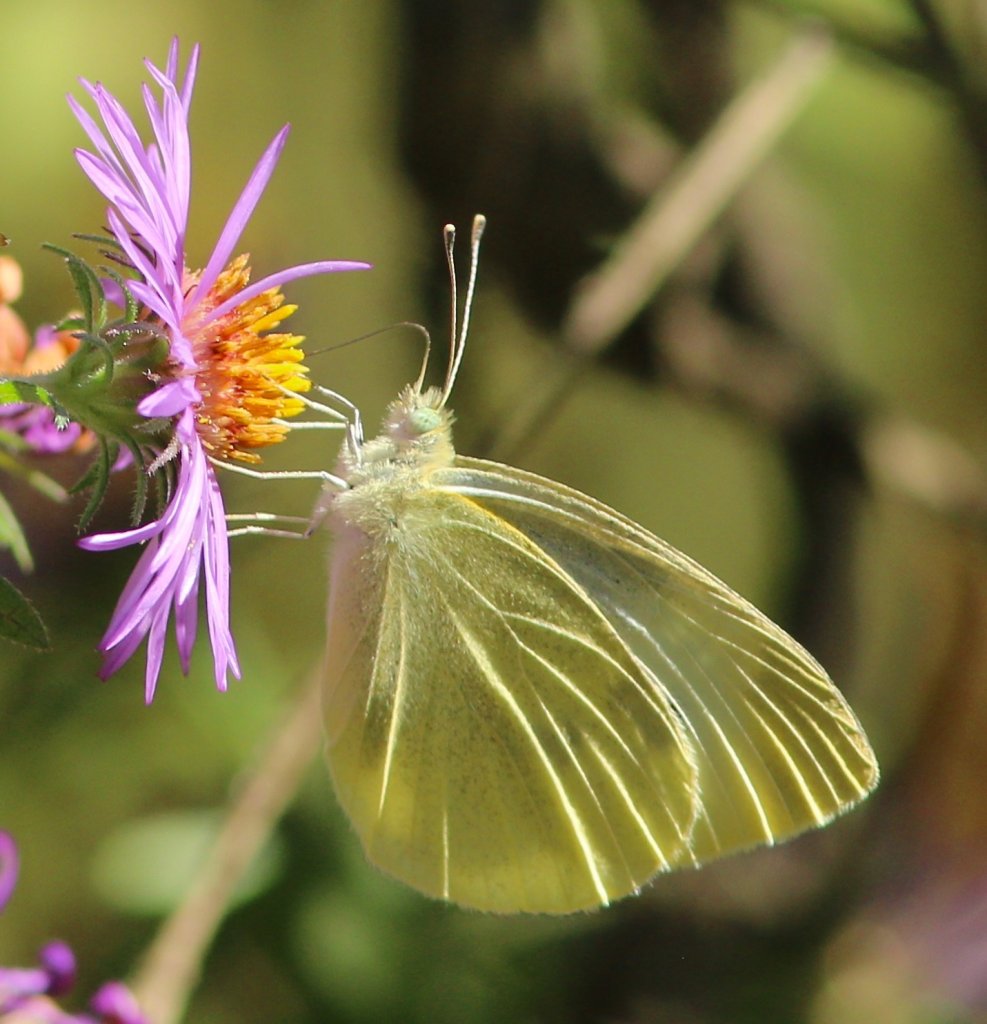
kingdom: Animalia
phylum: Arthropoda
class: Insecta
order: Lepidoptera
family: Pieridae
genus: Pieris
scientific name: Pieris rapae
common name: Cabbage White
